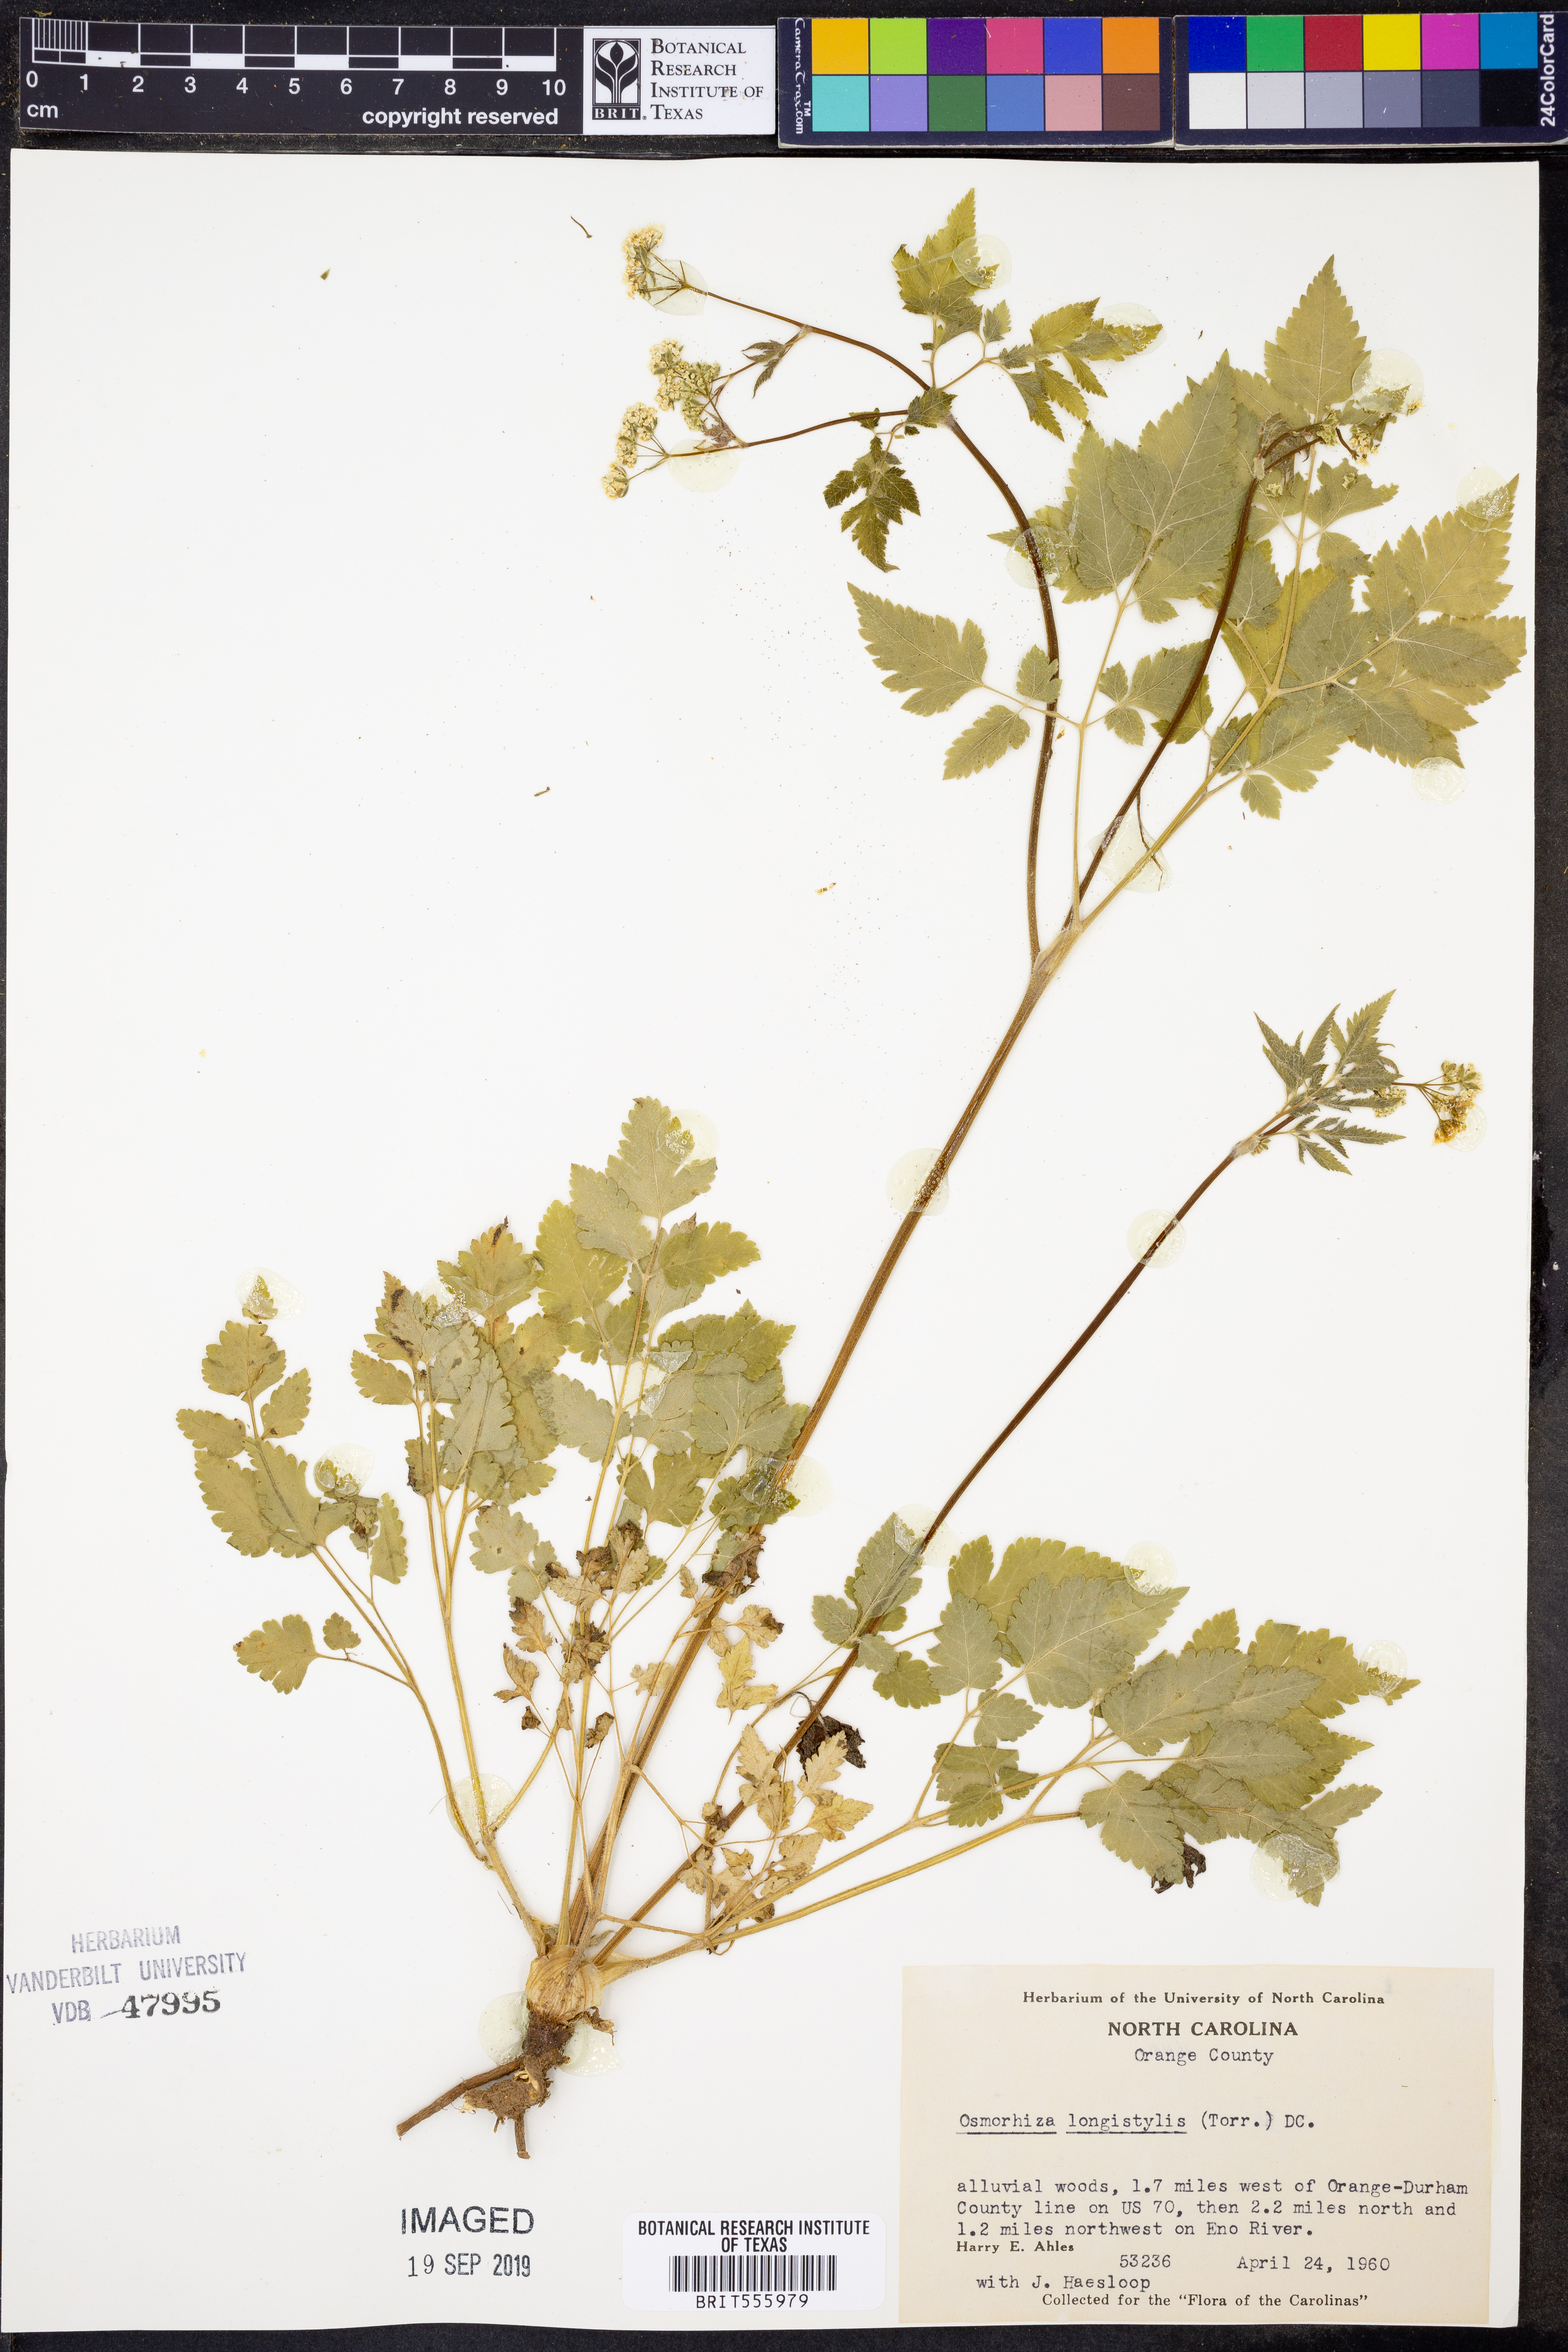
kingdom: Plantae
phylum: Tracheophyta
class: Magnoliopsida
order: Apiales
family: Apiaceae
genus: Osmorhiza
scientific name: Osmorhiza longistylis
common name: Smooth sweet cicely
